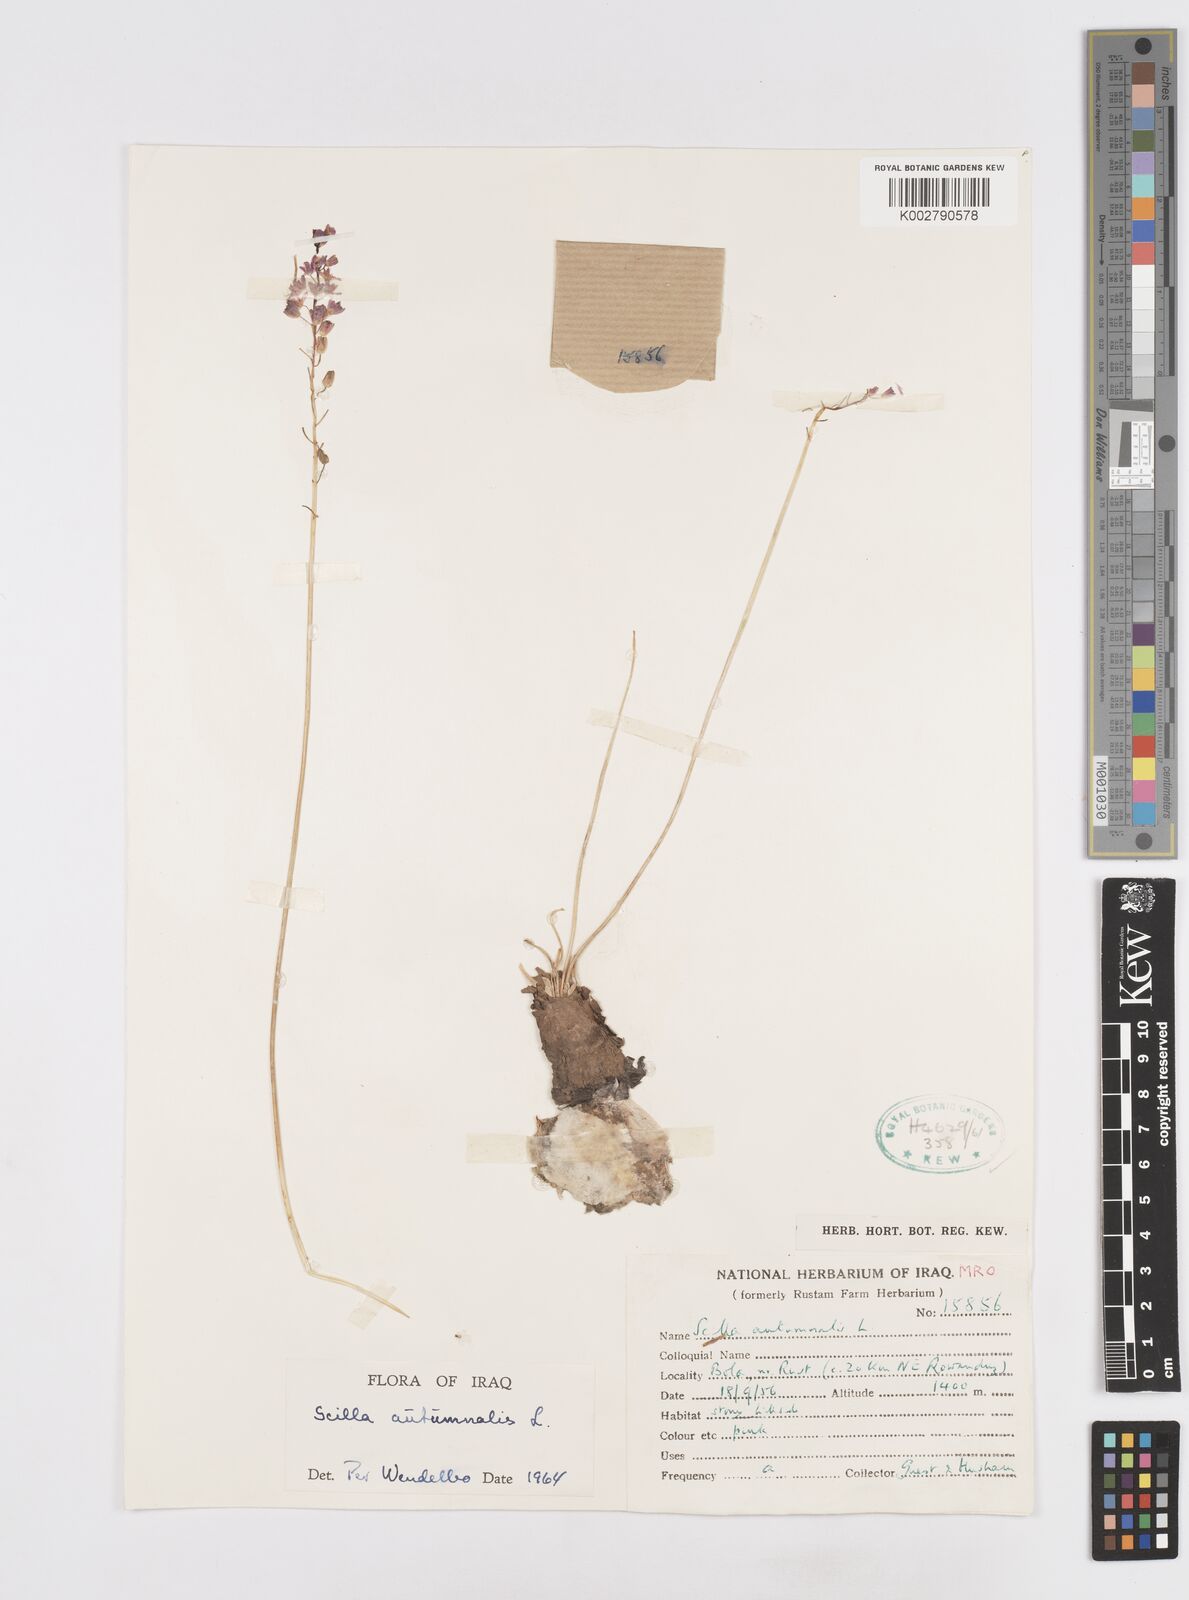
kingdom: Plantae
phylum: Tracheophyta
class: Liliopsida
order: Asparagales
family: Asparagaceae
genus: Prospero
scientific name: Prospero autumnale
